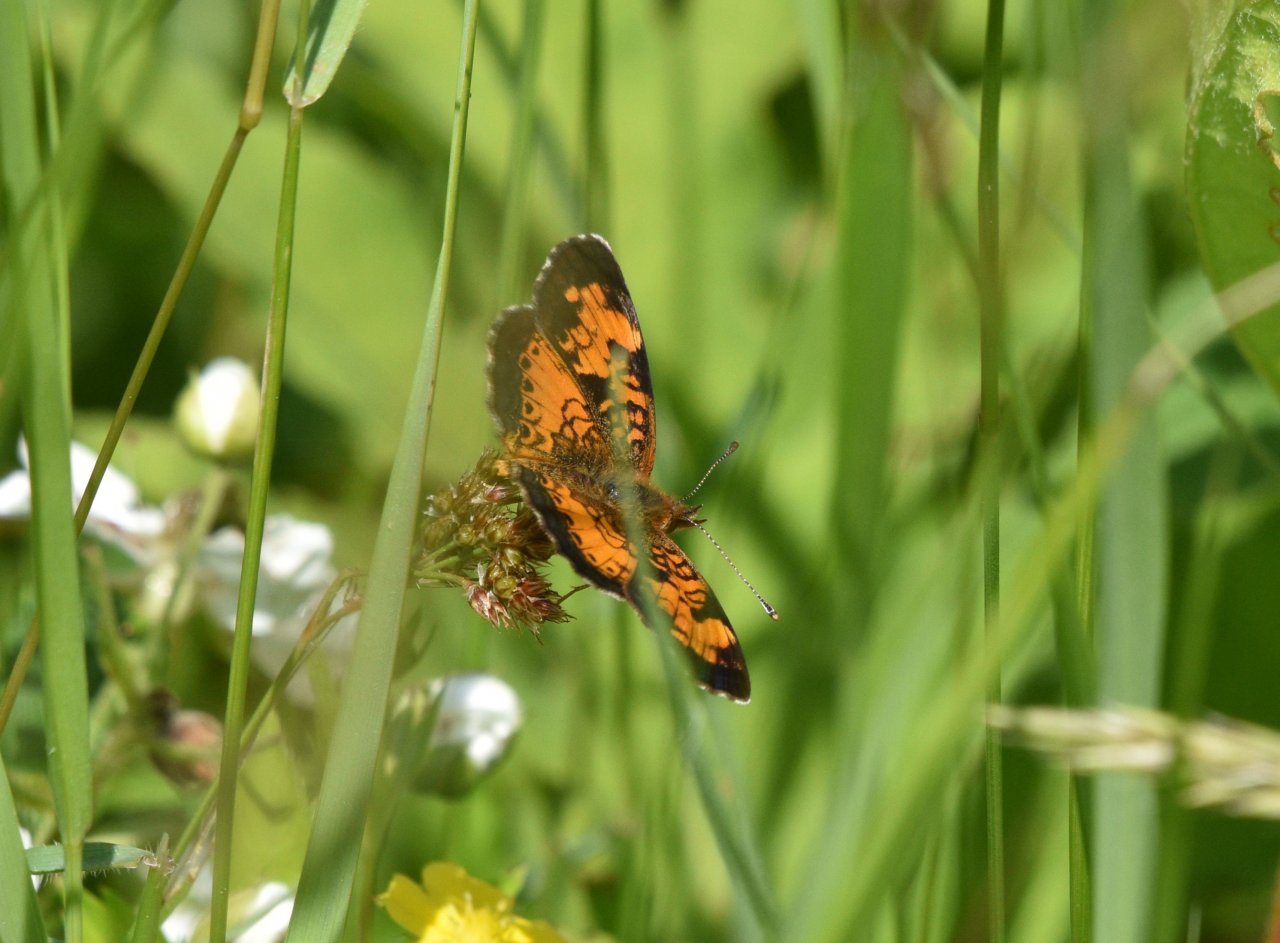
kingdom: Animalia
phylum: Arthropoda
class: Insecta
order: Lepidoptera
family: Nymphalidae
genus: Phyciodes
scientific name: Phyciodes tharos
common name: Northern Crescent
